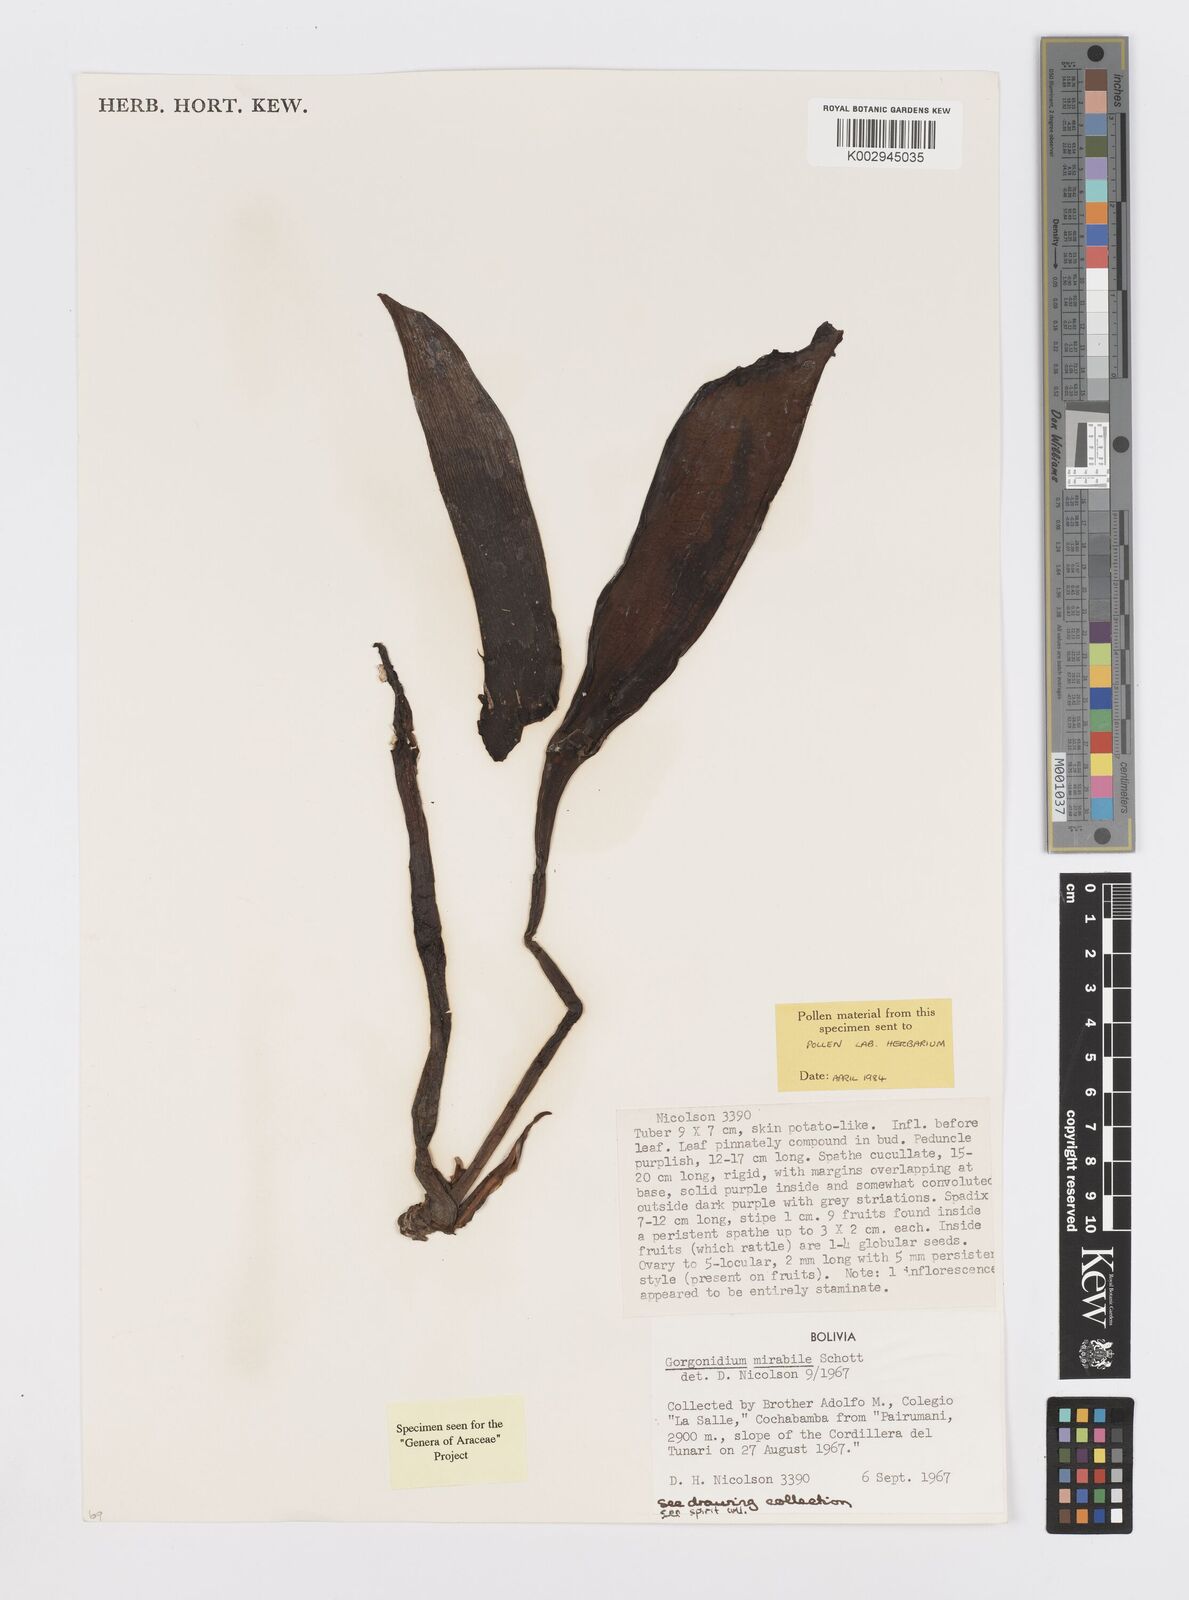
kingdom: Plantae
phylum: Tracheophyta
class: Liliopsida
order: Alismatales
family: Araceae
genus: Gorgonidium
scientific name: Gorgonidium mirabile
